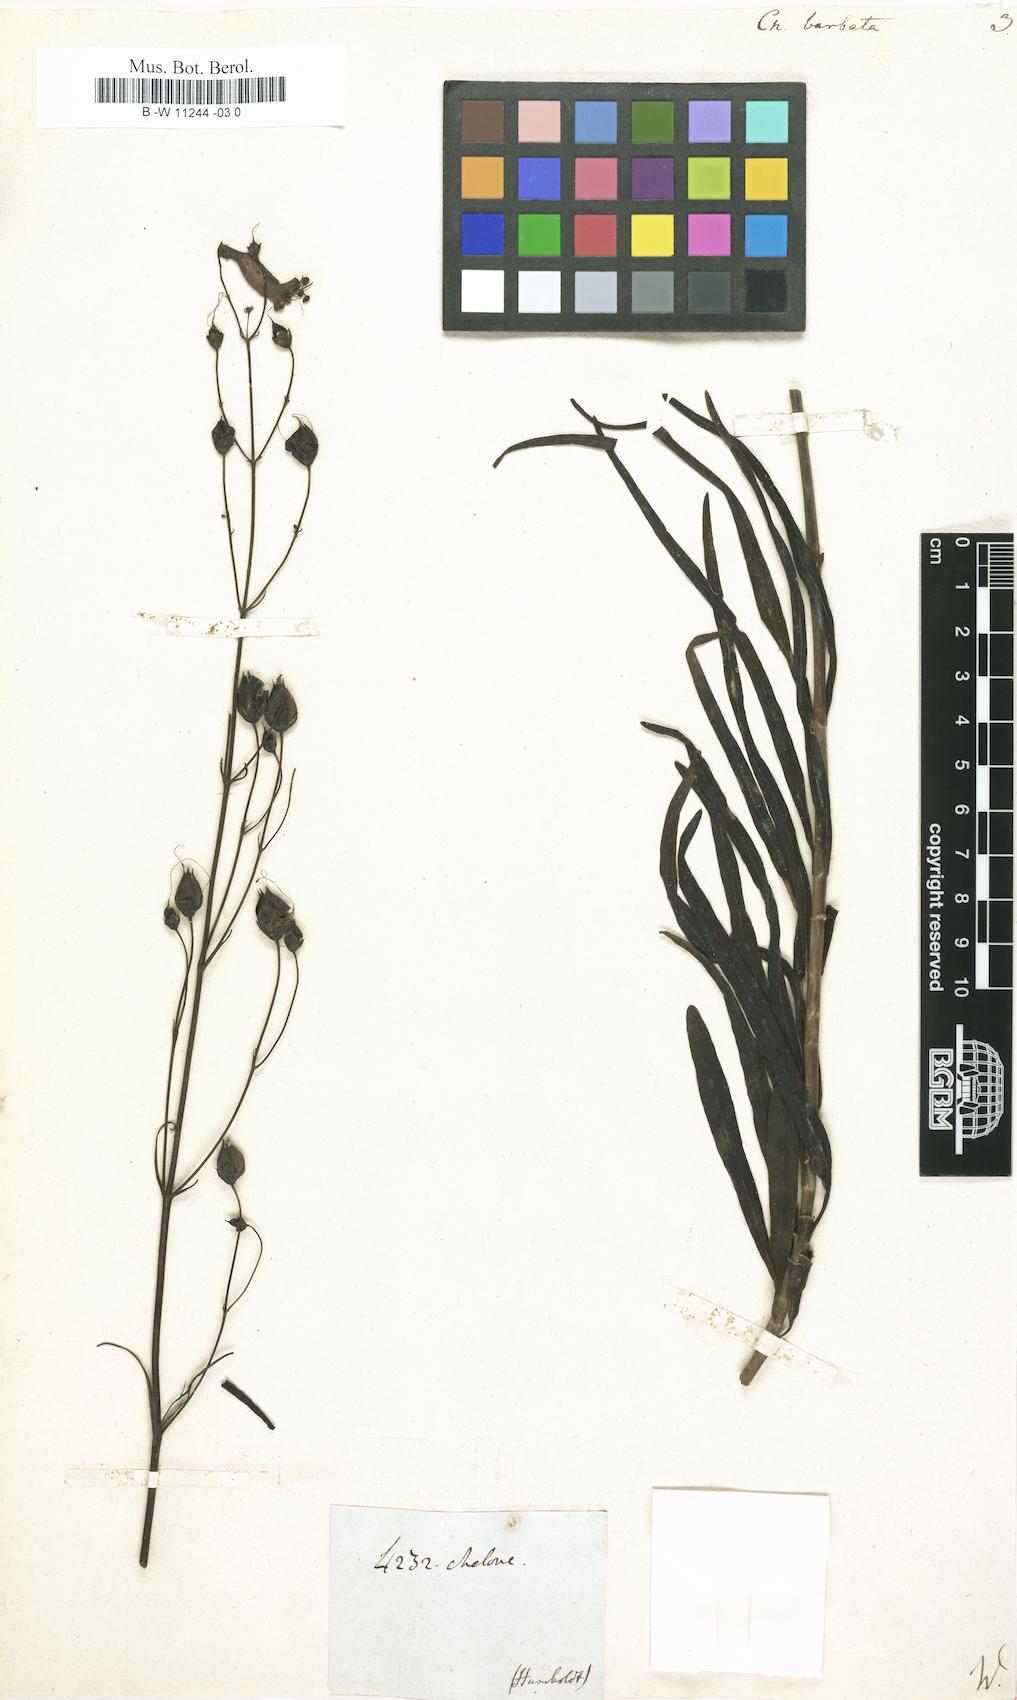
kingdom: Plantae
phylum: Tracheophyta
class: Magnoliopsida
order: Lamiales
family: Plantaginaceae
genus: Penstemon
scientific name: Penstemon barbatus
